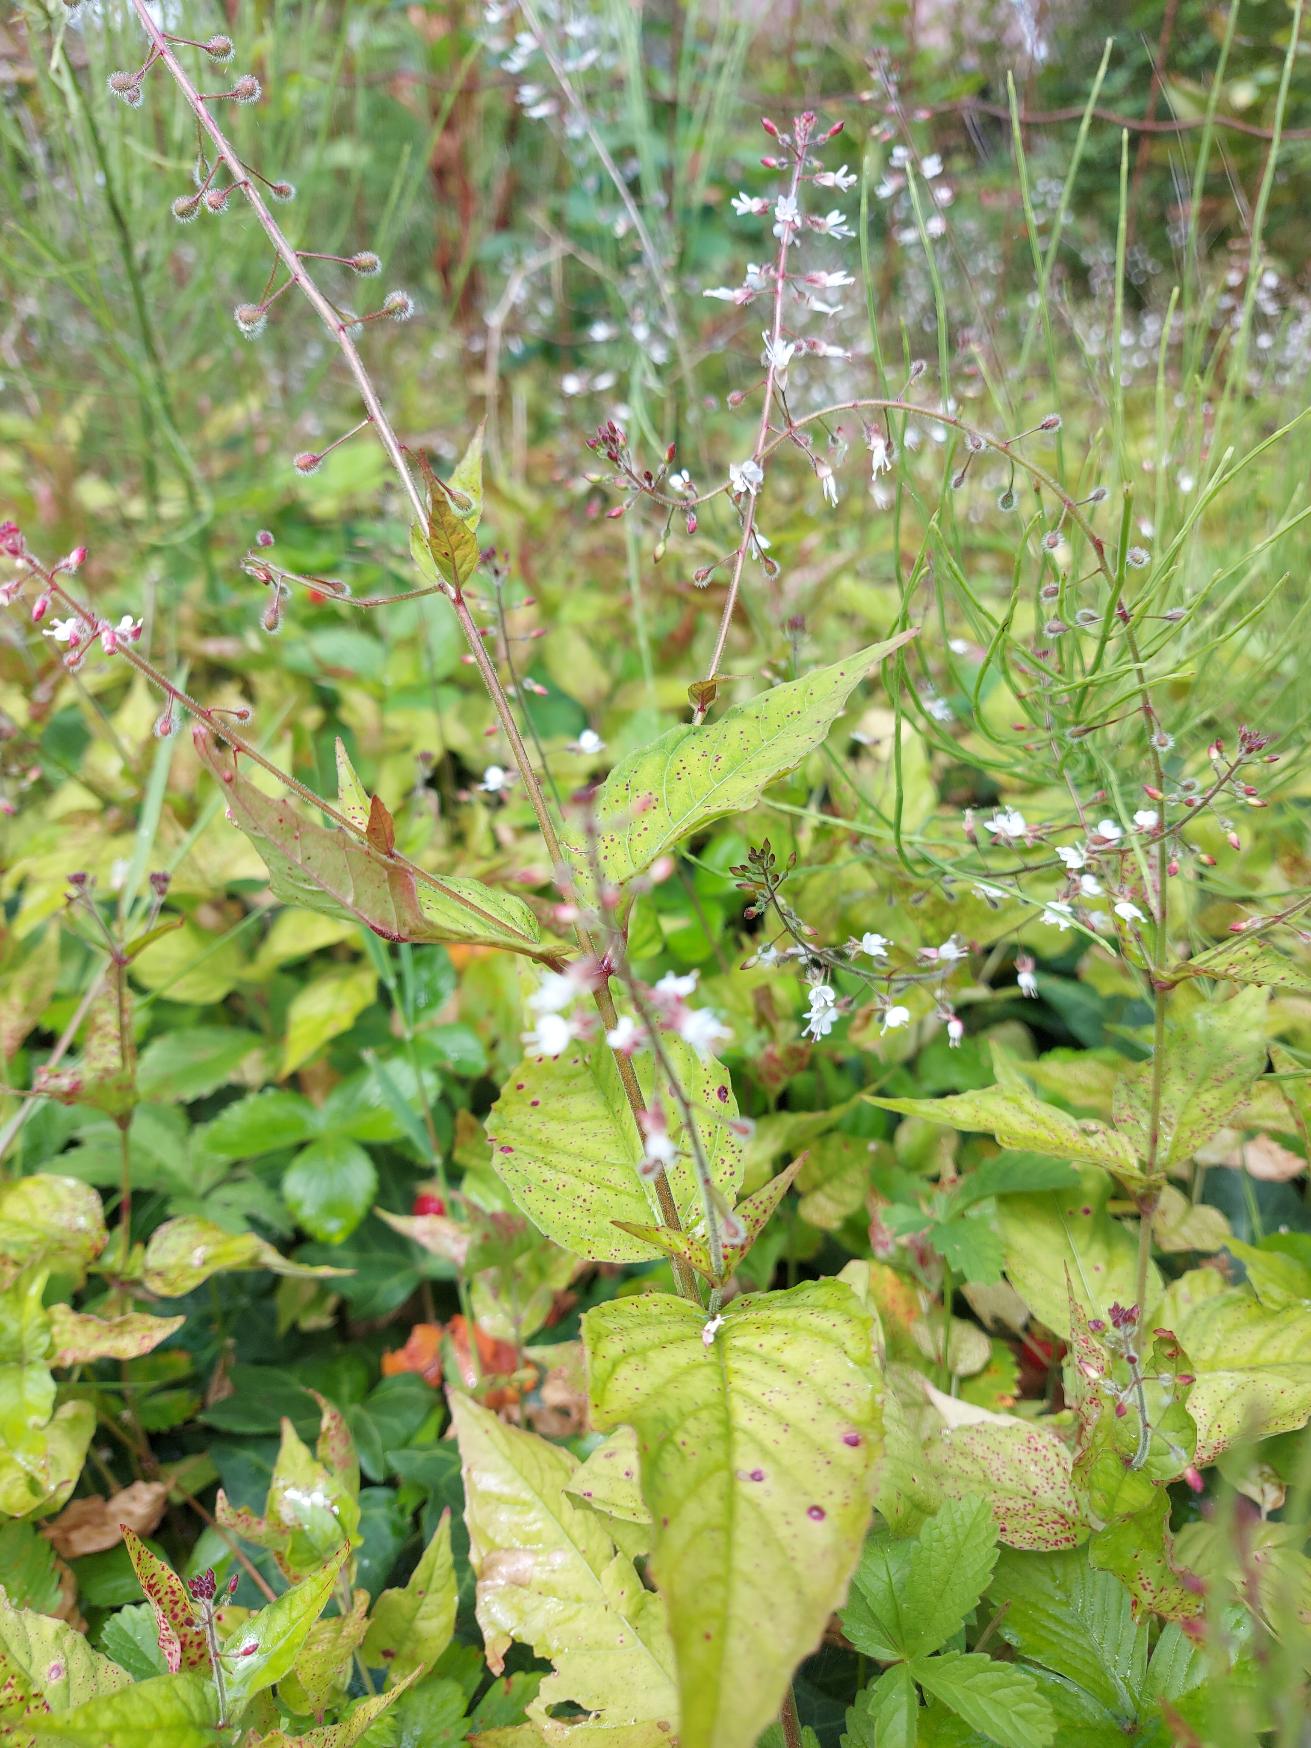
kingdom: Plantae
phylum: Tracheophyta
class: Magnoliopsida
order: Myrtales
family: Onagraceae
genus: Circaea
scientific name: Circaea lutetiana
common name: Dunet steffensurt
